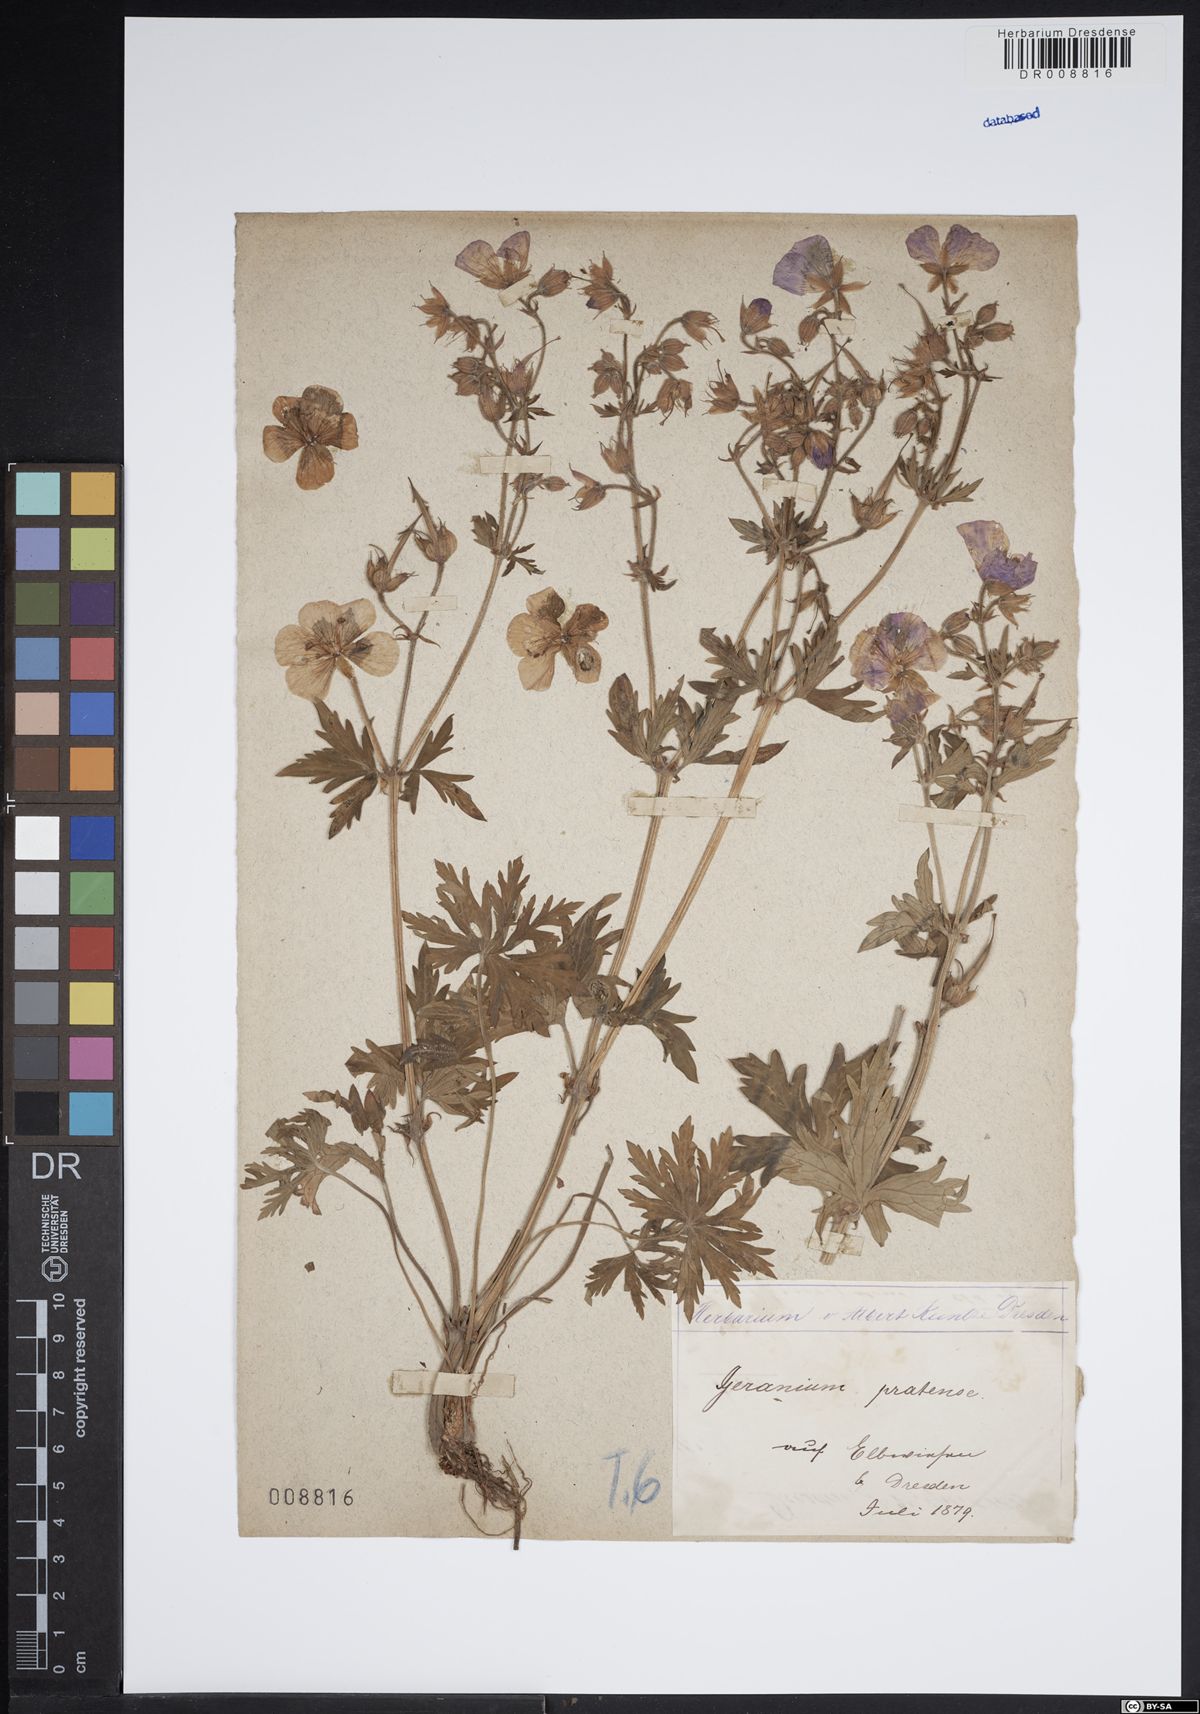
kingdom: Plantae
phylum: Tracheophyta
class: Magnoliopsida
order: Geraniales
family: Geraniaceae
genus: Geranium
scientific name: Geranium pratense
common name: Meadow crane's-bill
